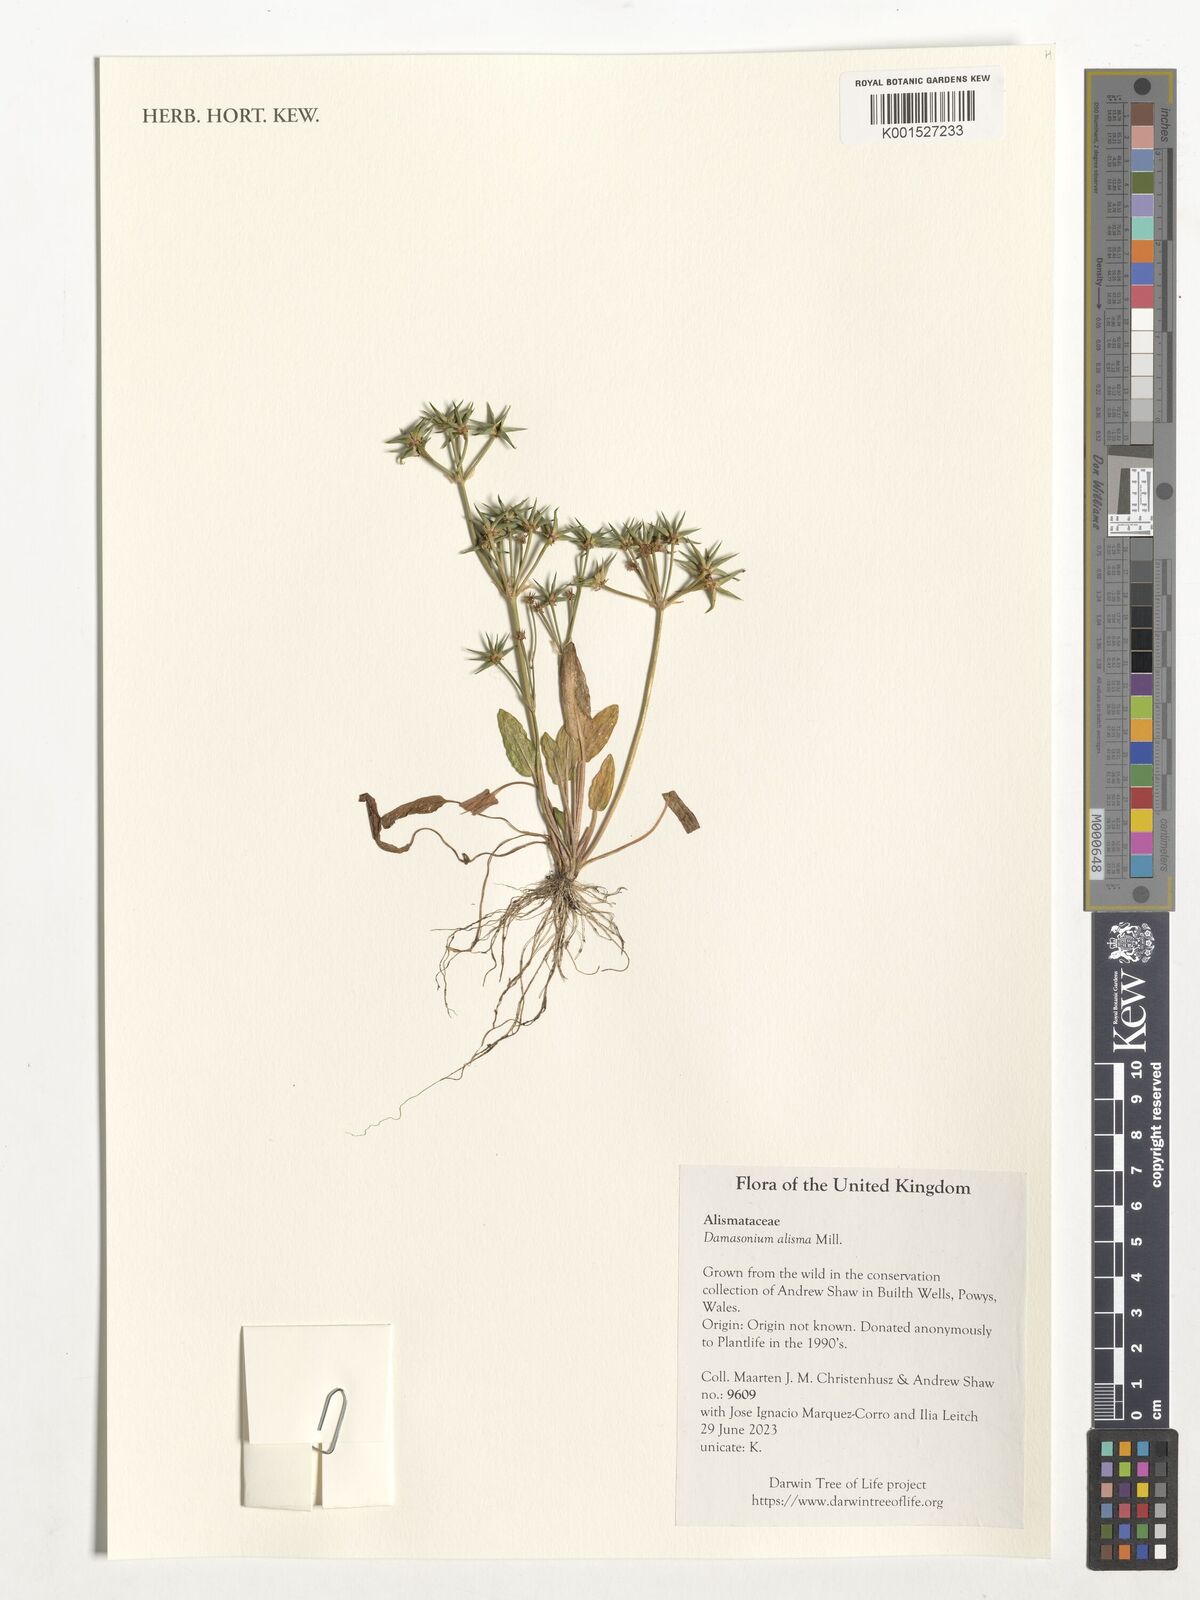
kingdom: Plantae
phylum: Tracheophyta
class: Liliopsida
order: Alismatales
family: Alismataceae
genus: Damasonium
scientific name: Damasonium alisma
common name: Starfruit
